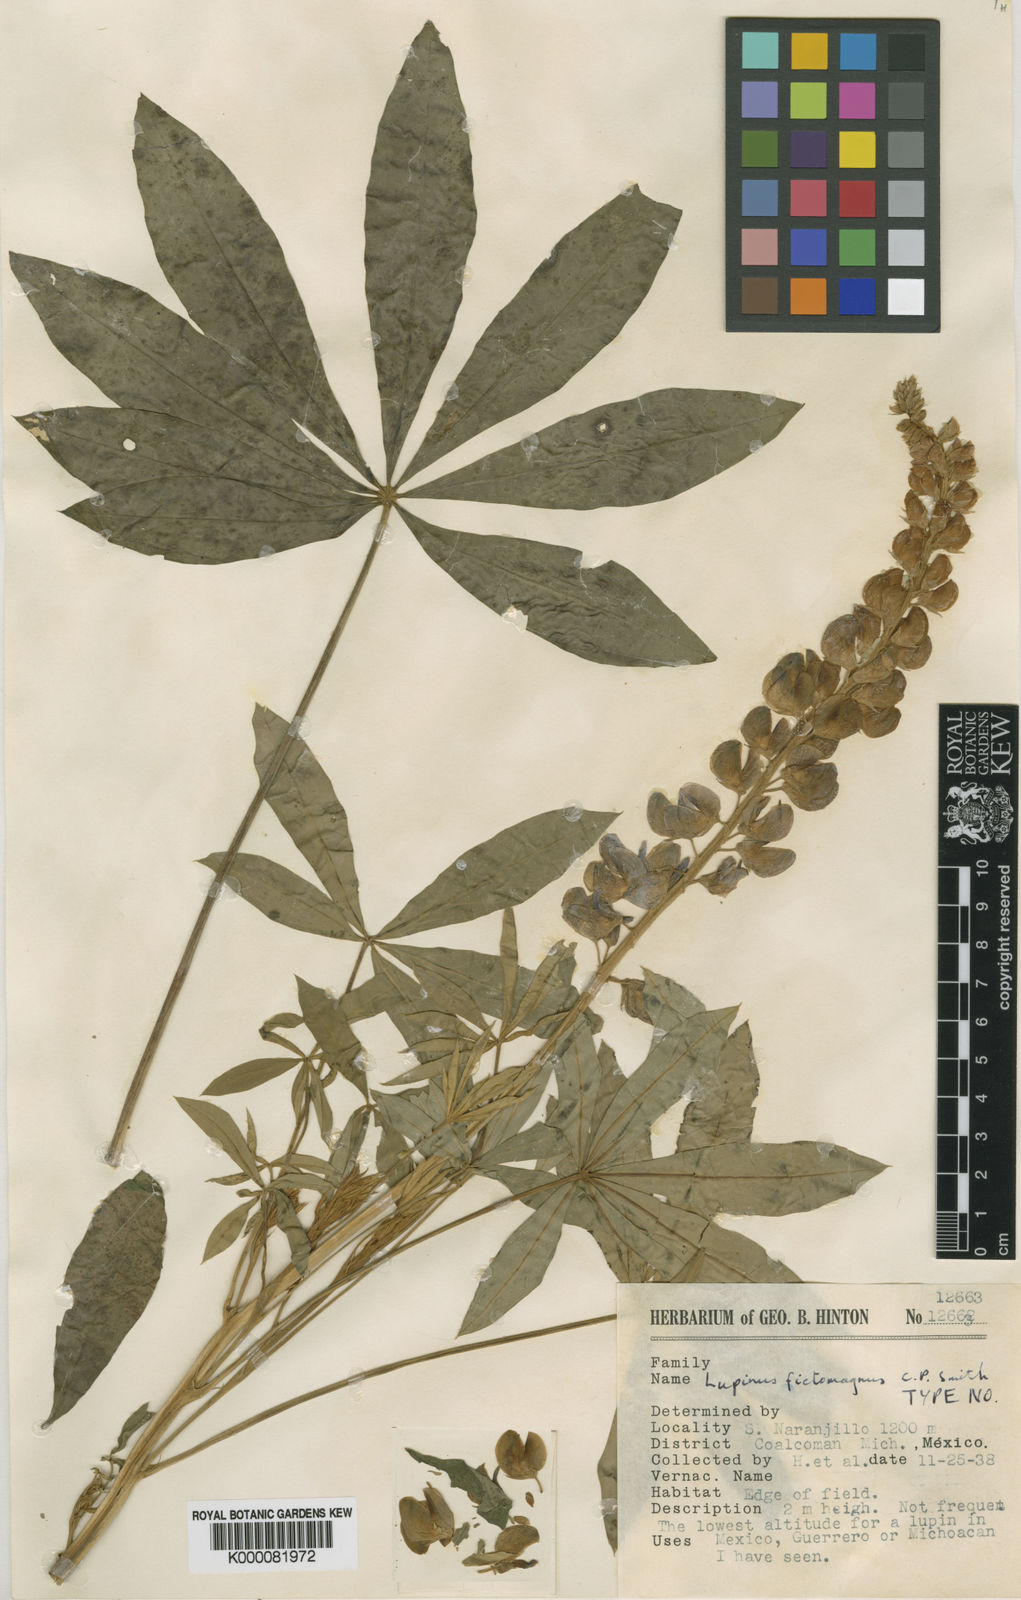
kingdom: Plantae
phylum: Tracheophyta
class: Magnoliopsida
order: Fabales
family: Fabaceae
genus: Lupinus
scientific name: Lupinus exaltatus
